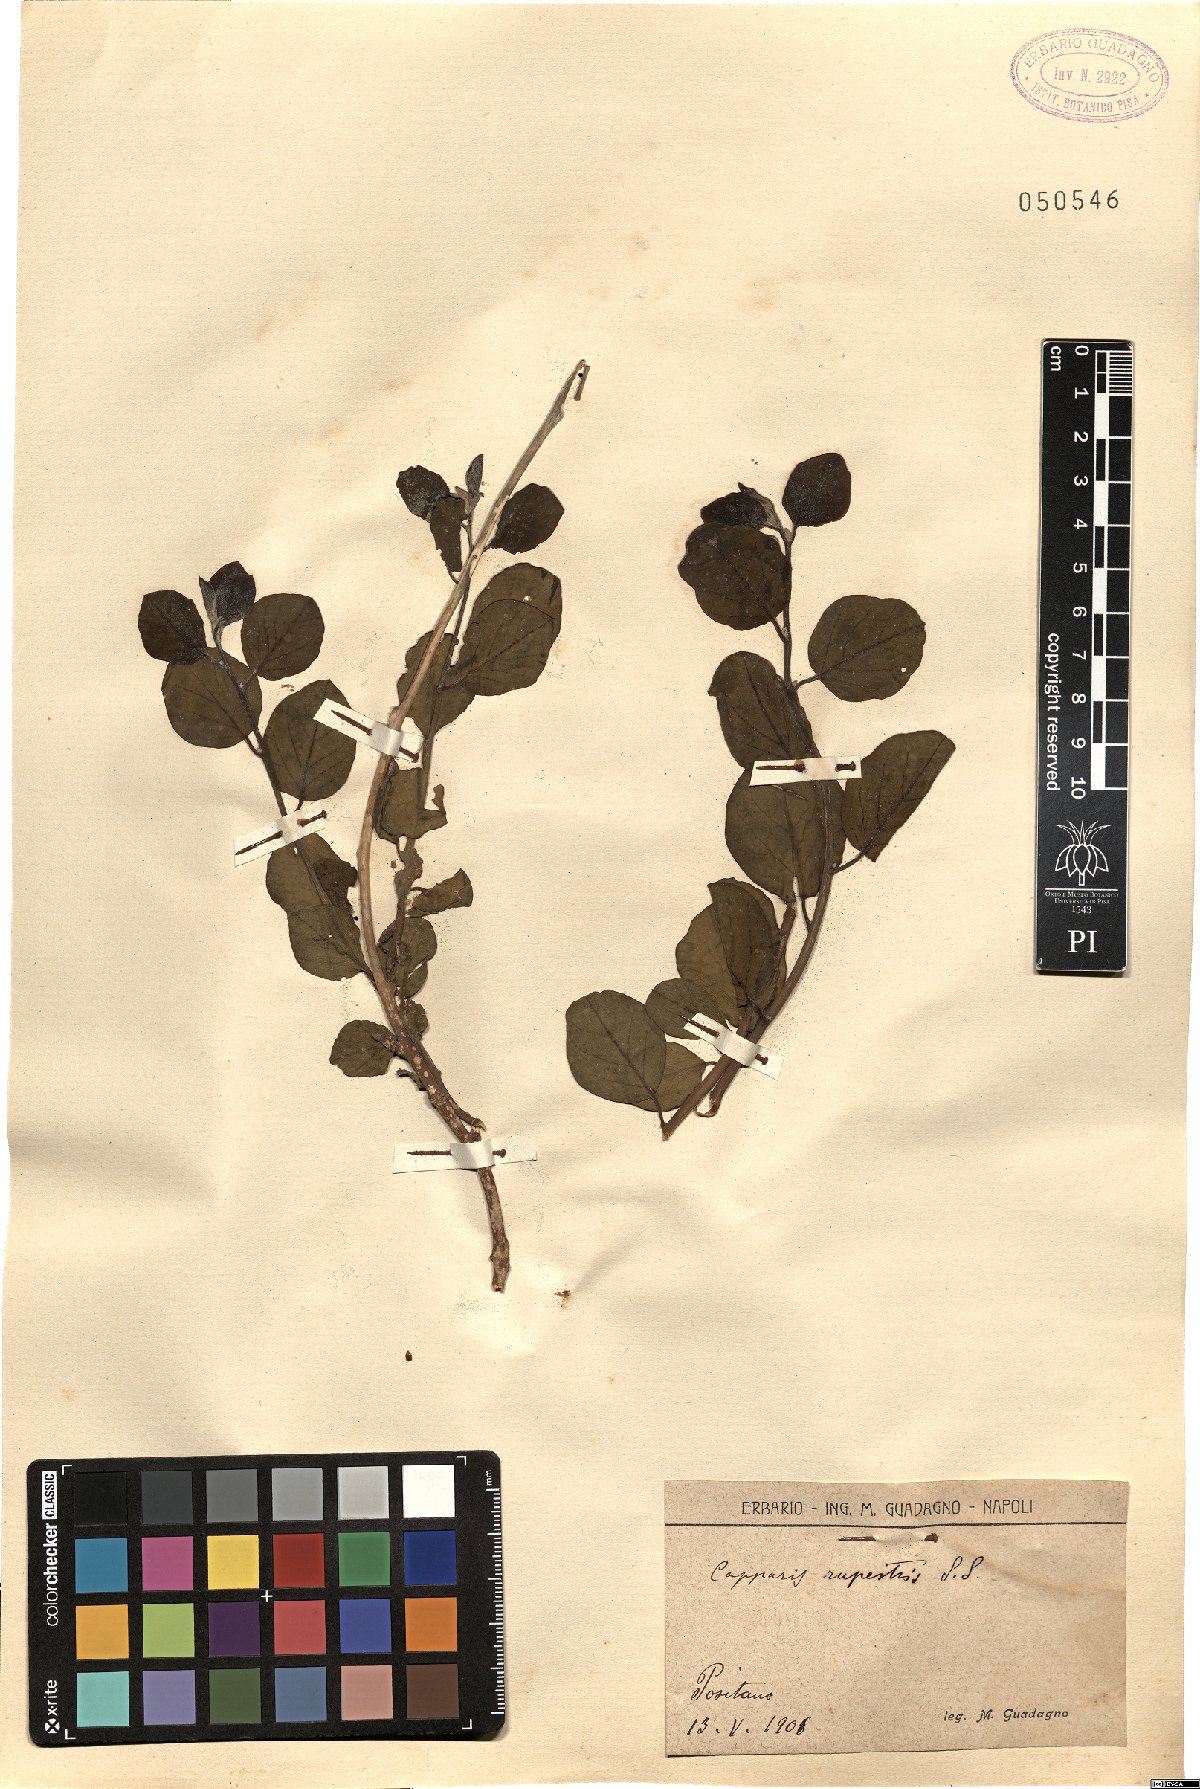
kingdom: Plantae
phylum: Tracheophyta
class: Magnoliopsida
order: Brassicales
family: Capparaceae
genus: Capparis
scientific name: Capparis spinosa
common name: Caper
